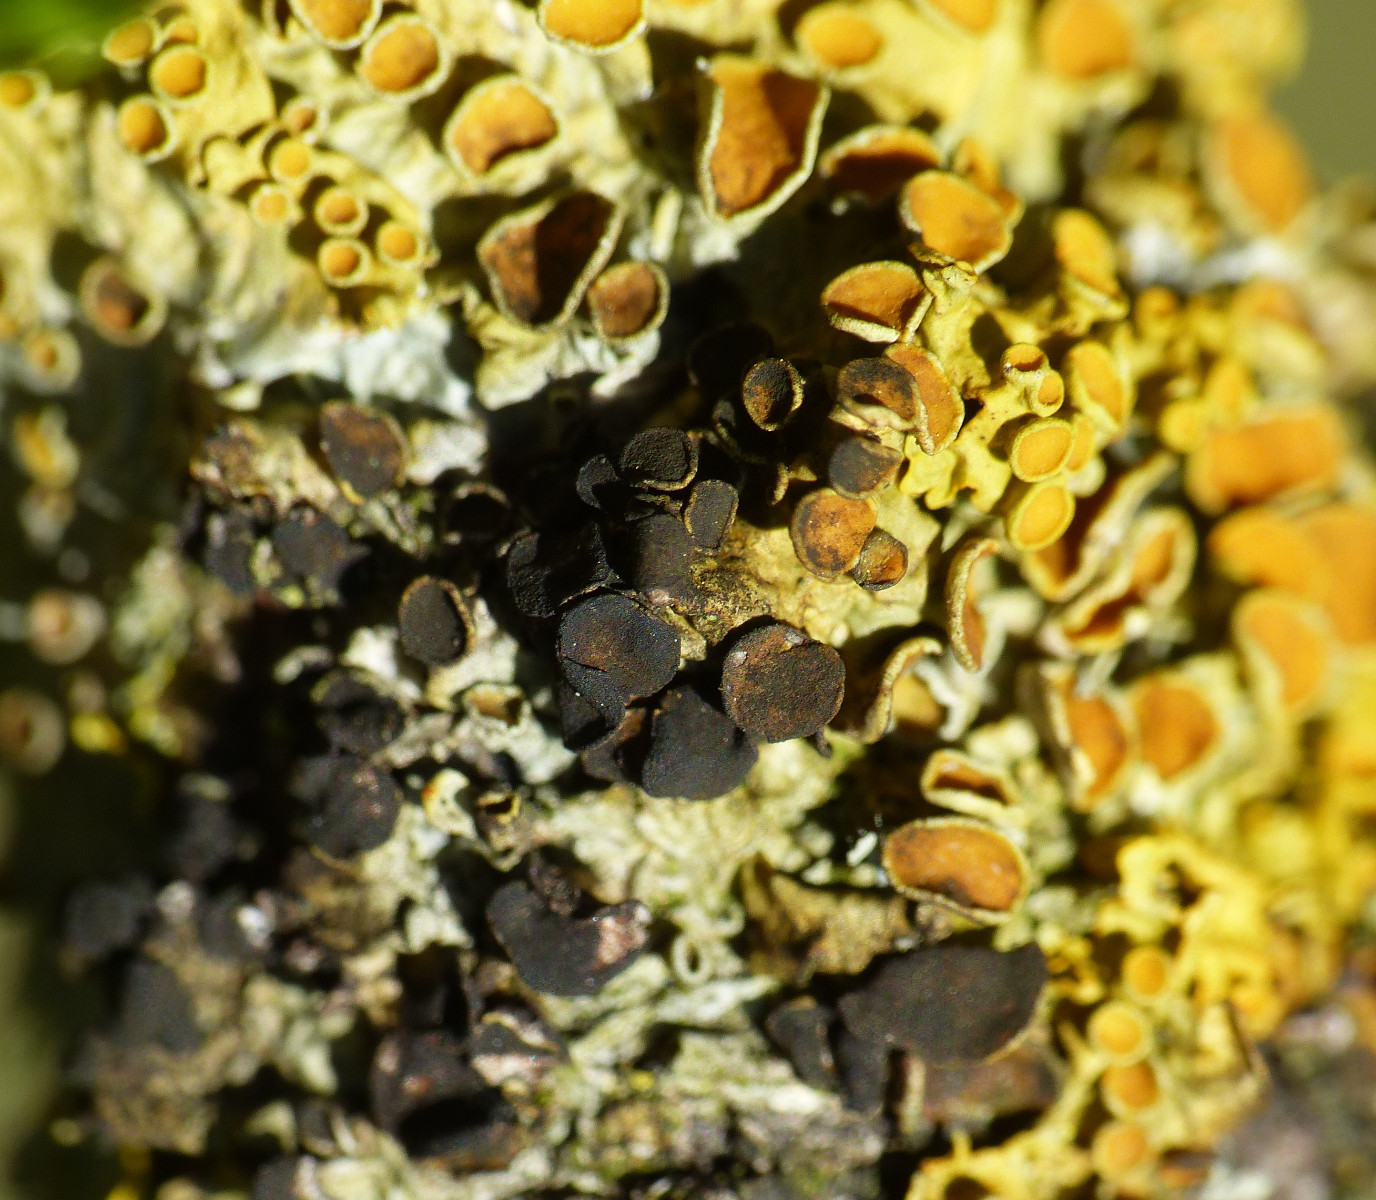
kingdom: Fungi
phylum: Ascomycota
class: Dothideomycetes
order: Mycosphaerellales
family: Teratosphaeriaceae
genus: Xanthoriicola
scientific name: Xanthoriicola physciae
